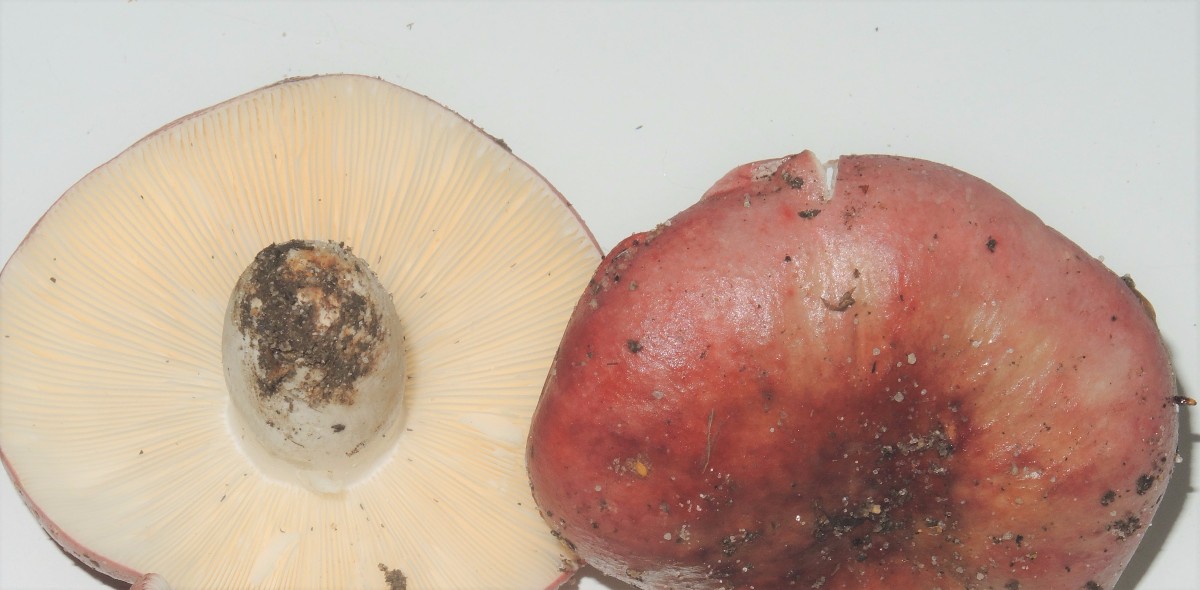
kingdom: Fungi
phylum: Basidiomycota
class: Agaricomycetes
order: Russulales
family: Russulaceae
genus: Russula
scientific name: Russula depallens
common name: falmende skørhat
